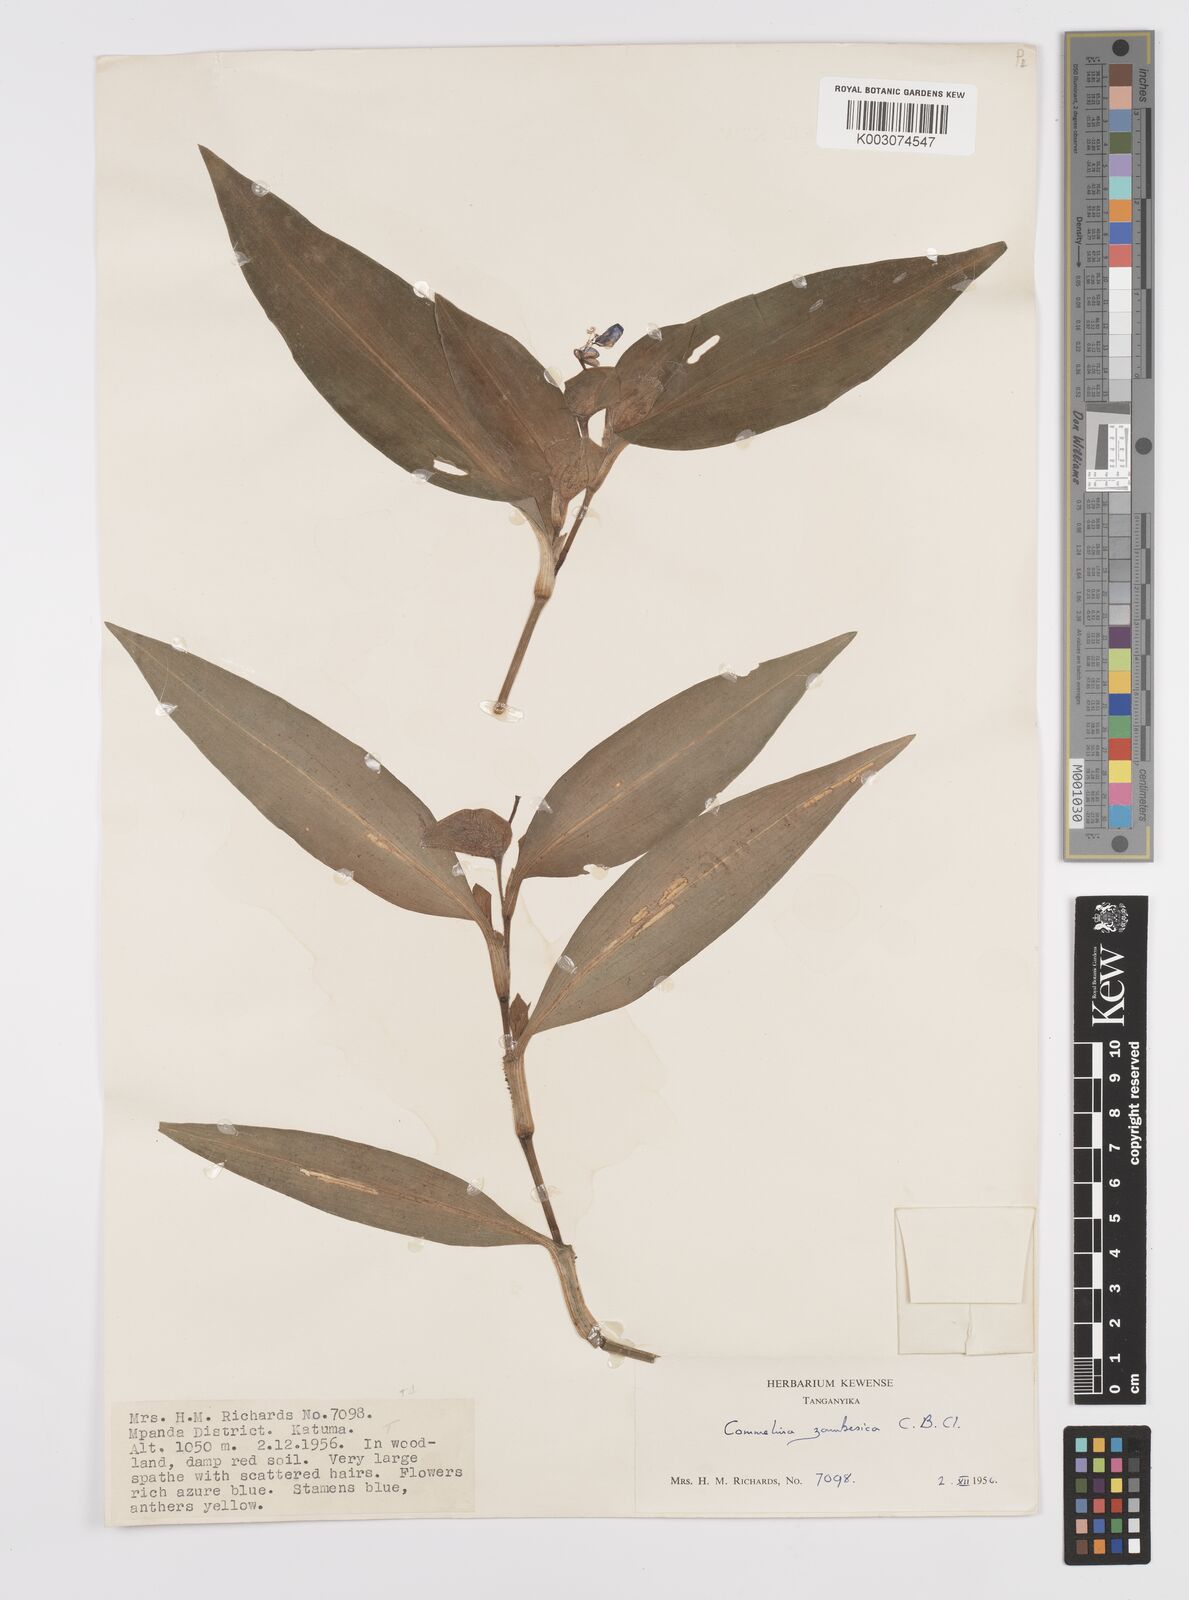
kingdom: Plantae
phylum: Tracheophyta
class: Liliopsida
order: Commelinales
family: Commelinaceae
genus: Commelina
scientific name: Commelina zambesica
